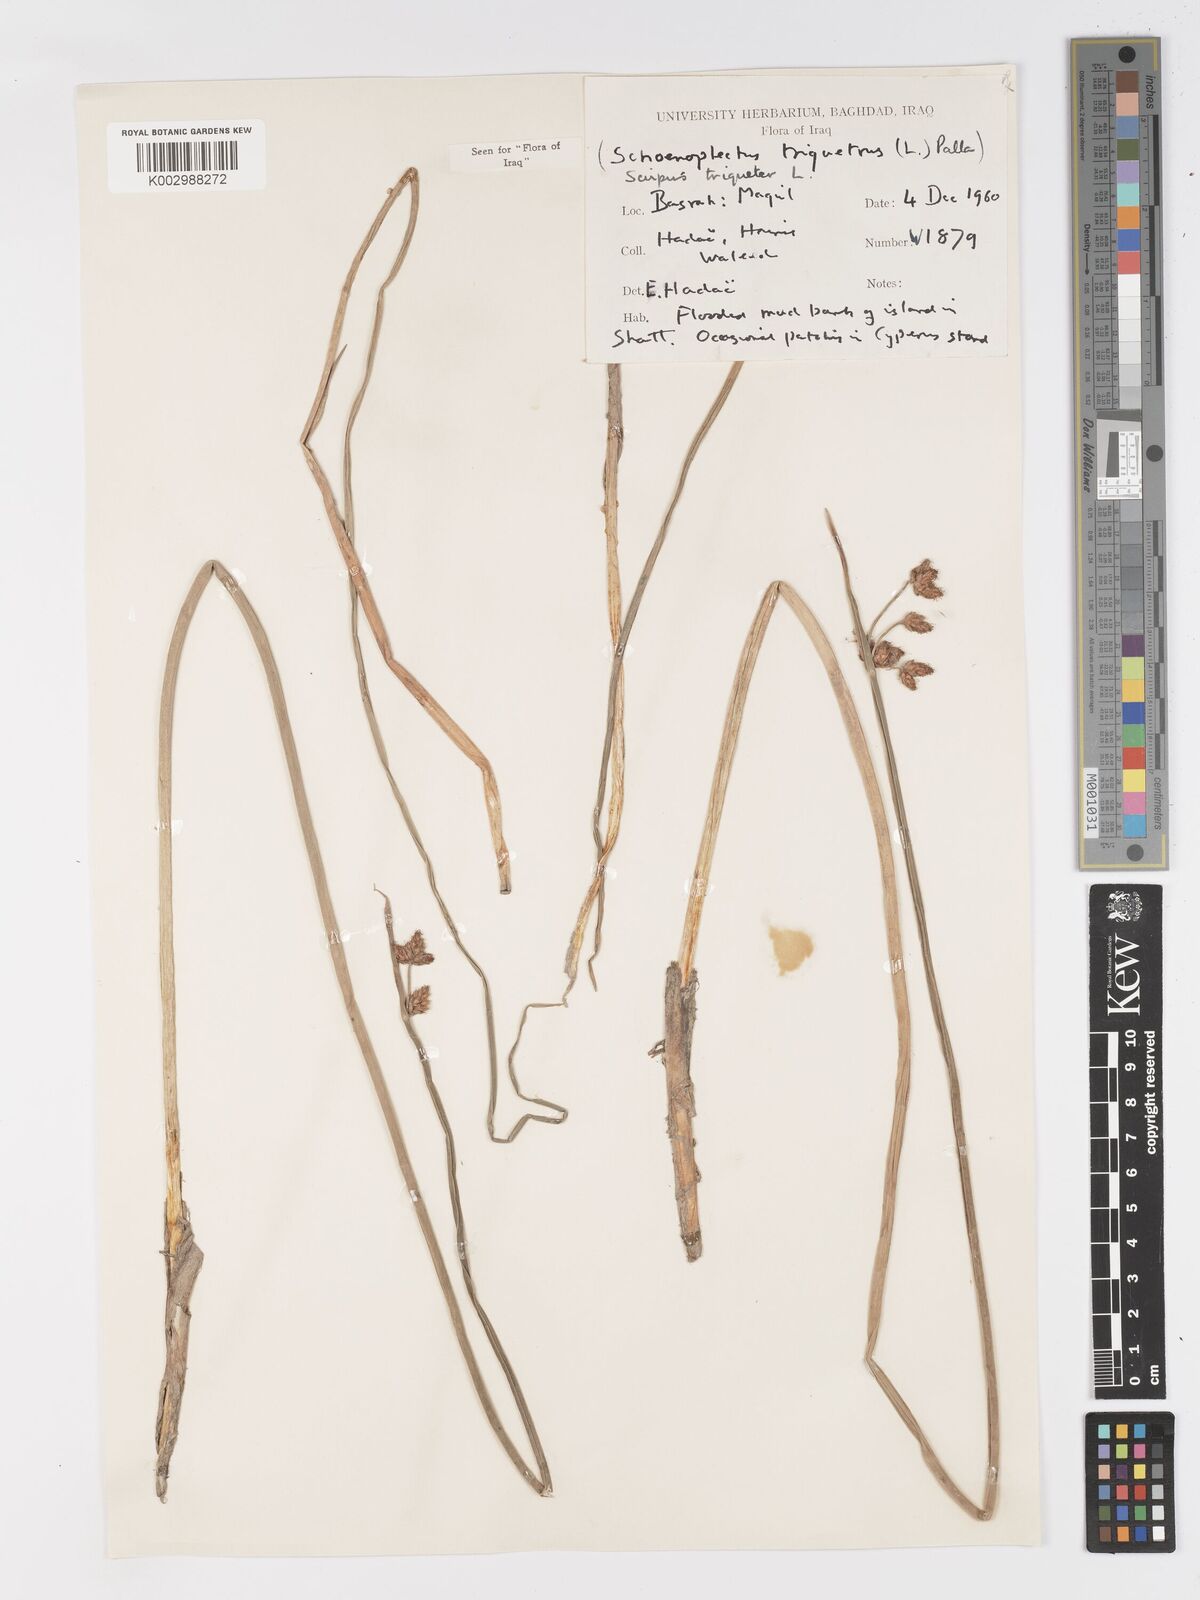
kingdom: Plantae
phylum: Tracheophyta
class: Liliopsida
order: Poales
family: Cyperaceae
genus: Schoenoplectus
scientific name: Schoenoplectus triqueter
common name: Triangular club-rush
